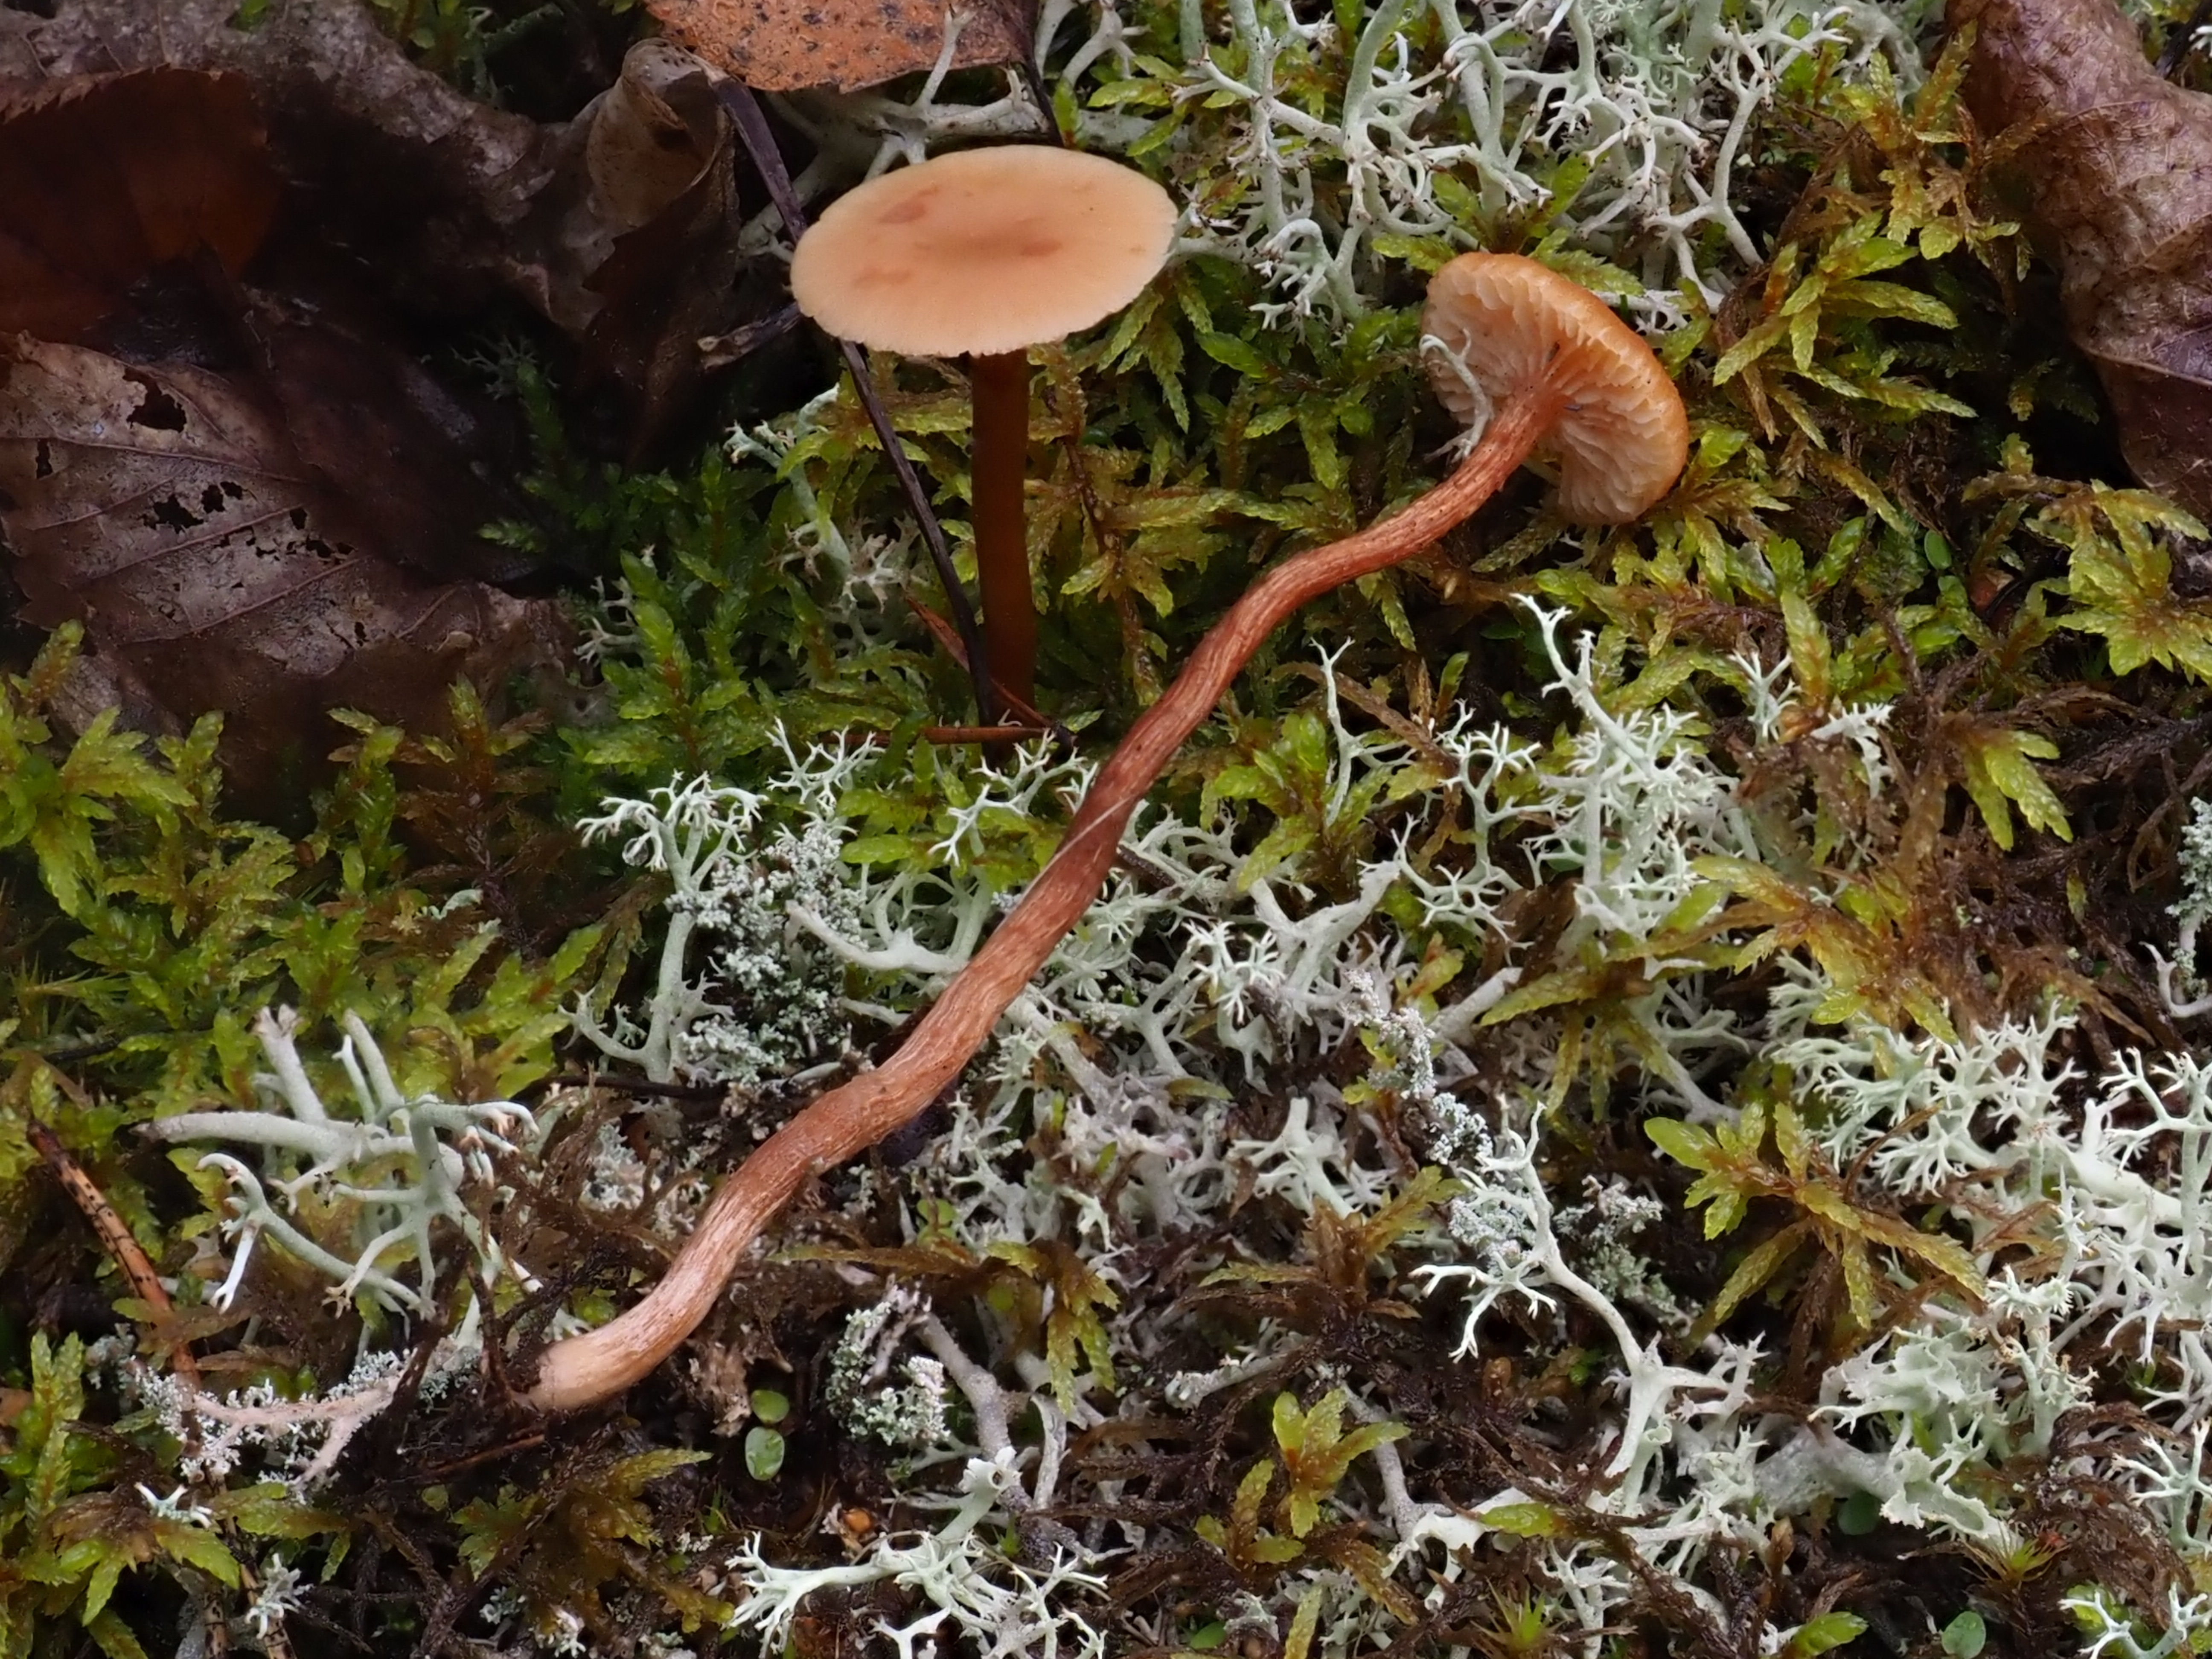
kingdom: Fungi
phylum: Basidiomycota
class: Agaricomycetes
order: Agaricales
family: Hydnangiaceae
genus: Laccaria
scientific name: Laccaria
